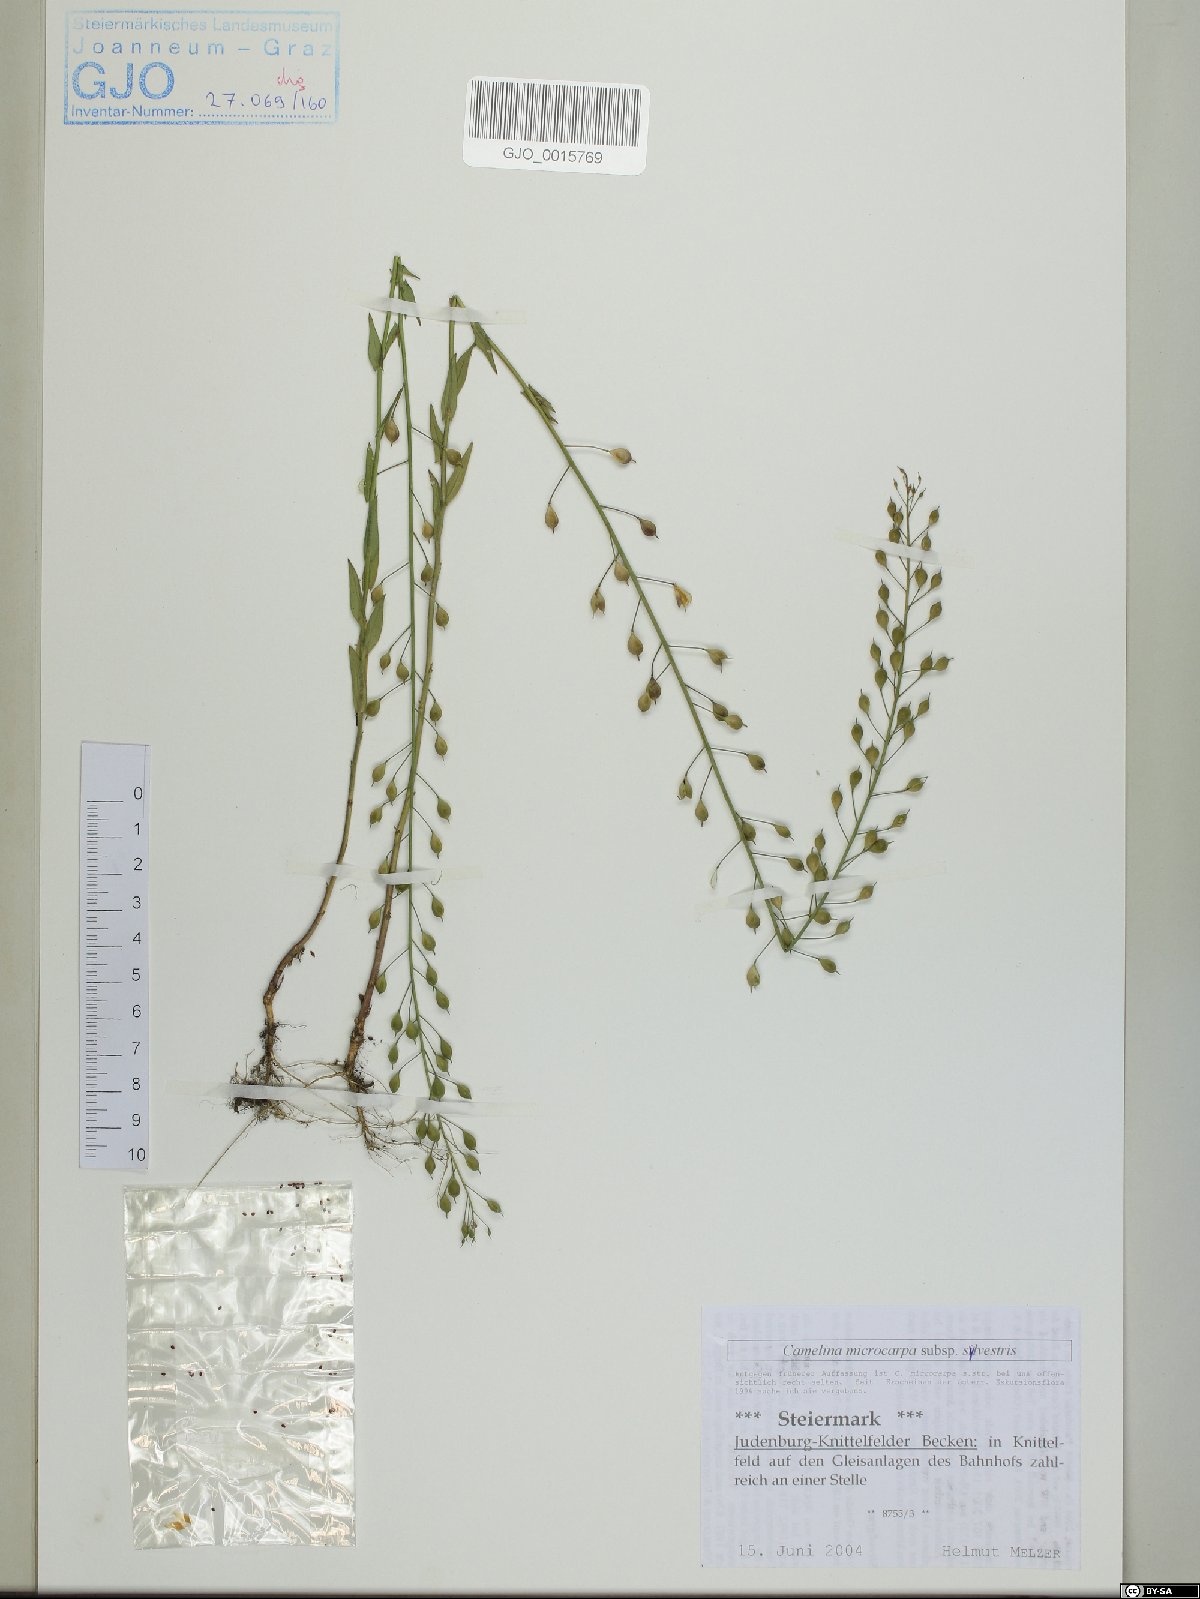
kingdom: Plantae
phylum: Tracheophyta
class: Magnoliopsida
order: Brassicales
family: Brassicaceae
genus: Camelina
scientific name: Camelina microcarpa
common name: Lesser gold-of-pleasure
